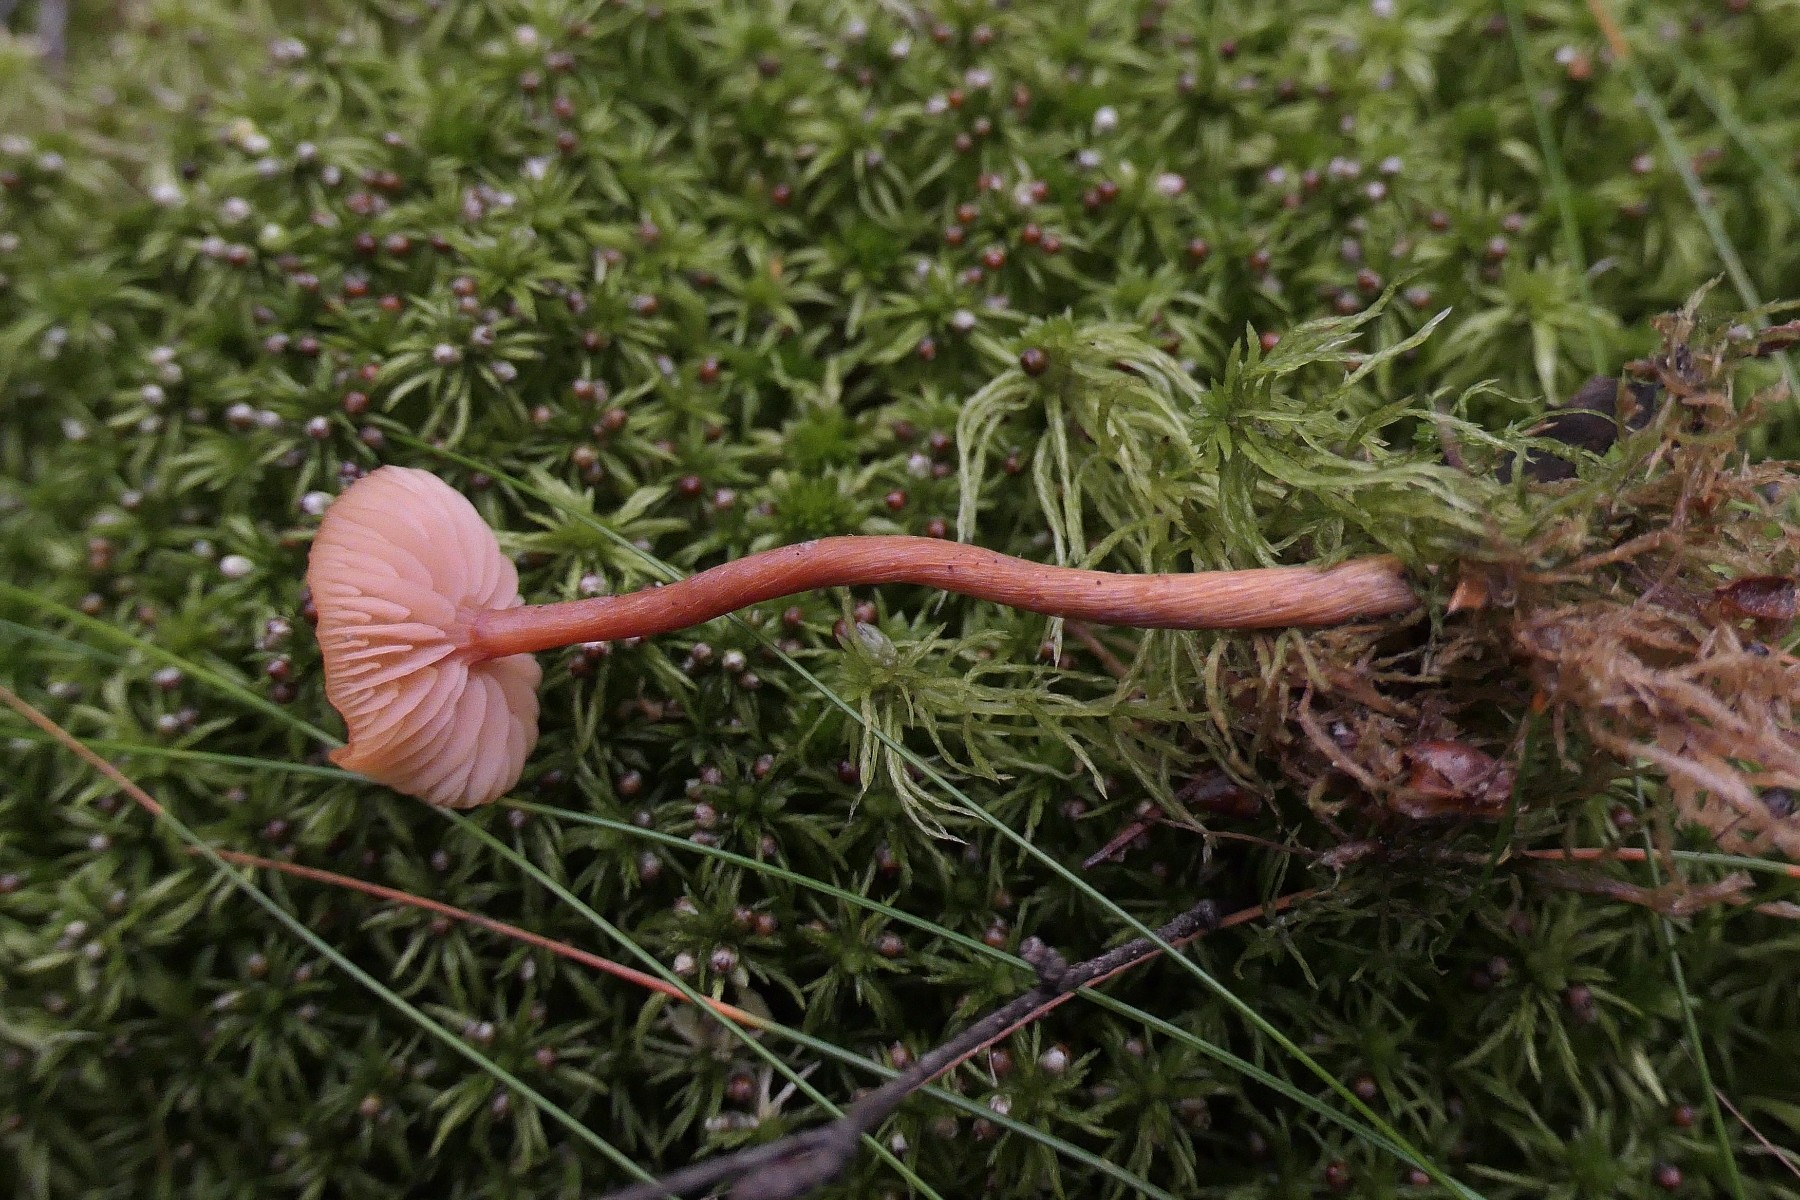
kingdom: Fungi
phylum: Basidiomycota
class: Agaricomycetes
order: Agaricales
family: Hydnangiaceae
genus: Laccaria
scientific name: Laccaria laccata
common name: rød ametysthat
